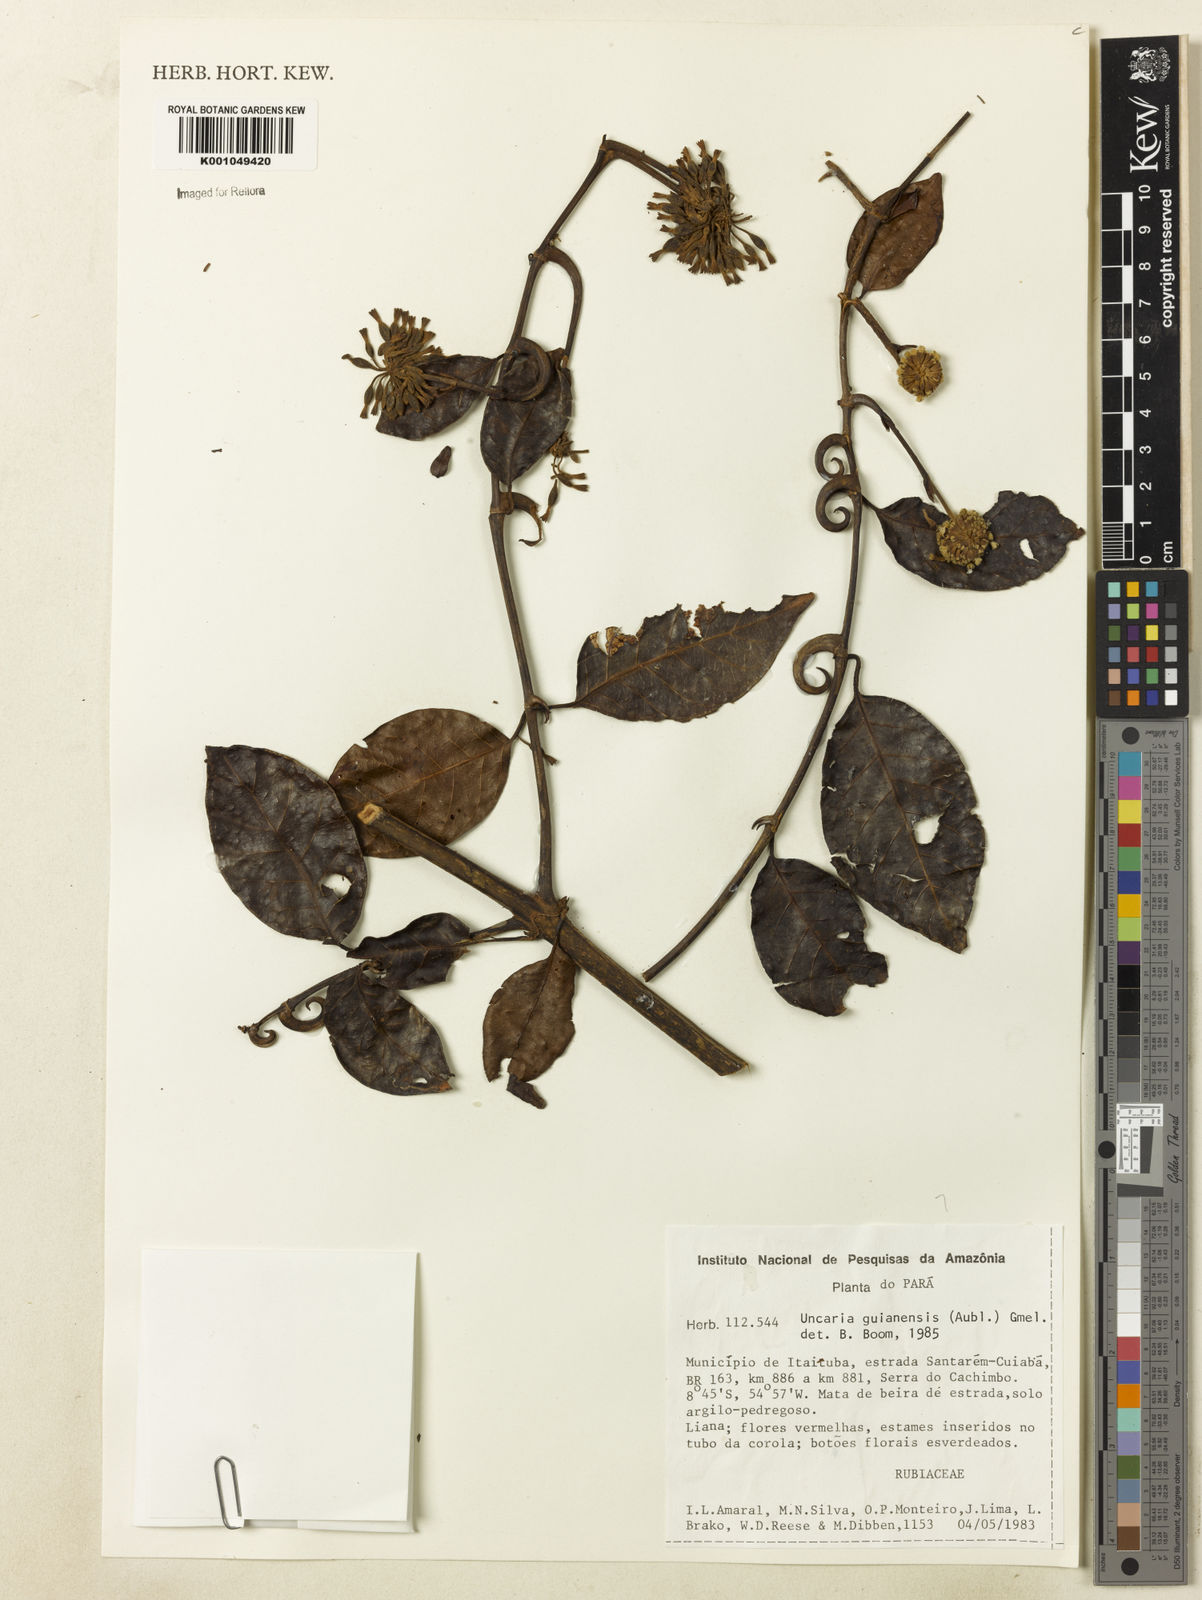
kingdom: Plantae
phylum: Tracheophyta
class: Magnoliopsida
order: Gentianales
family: Rubiaceae
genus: Uncaria
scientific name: Uncaria guianensis
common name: Cat's-claw
